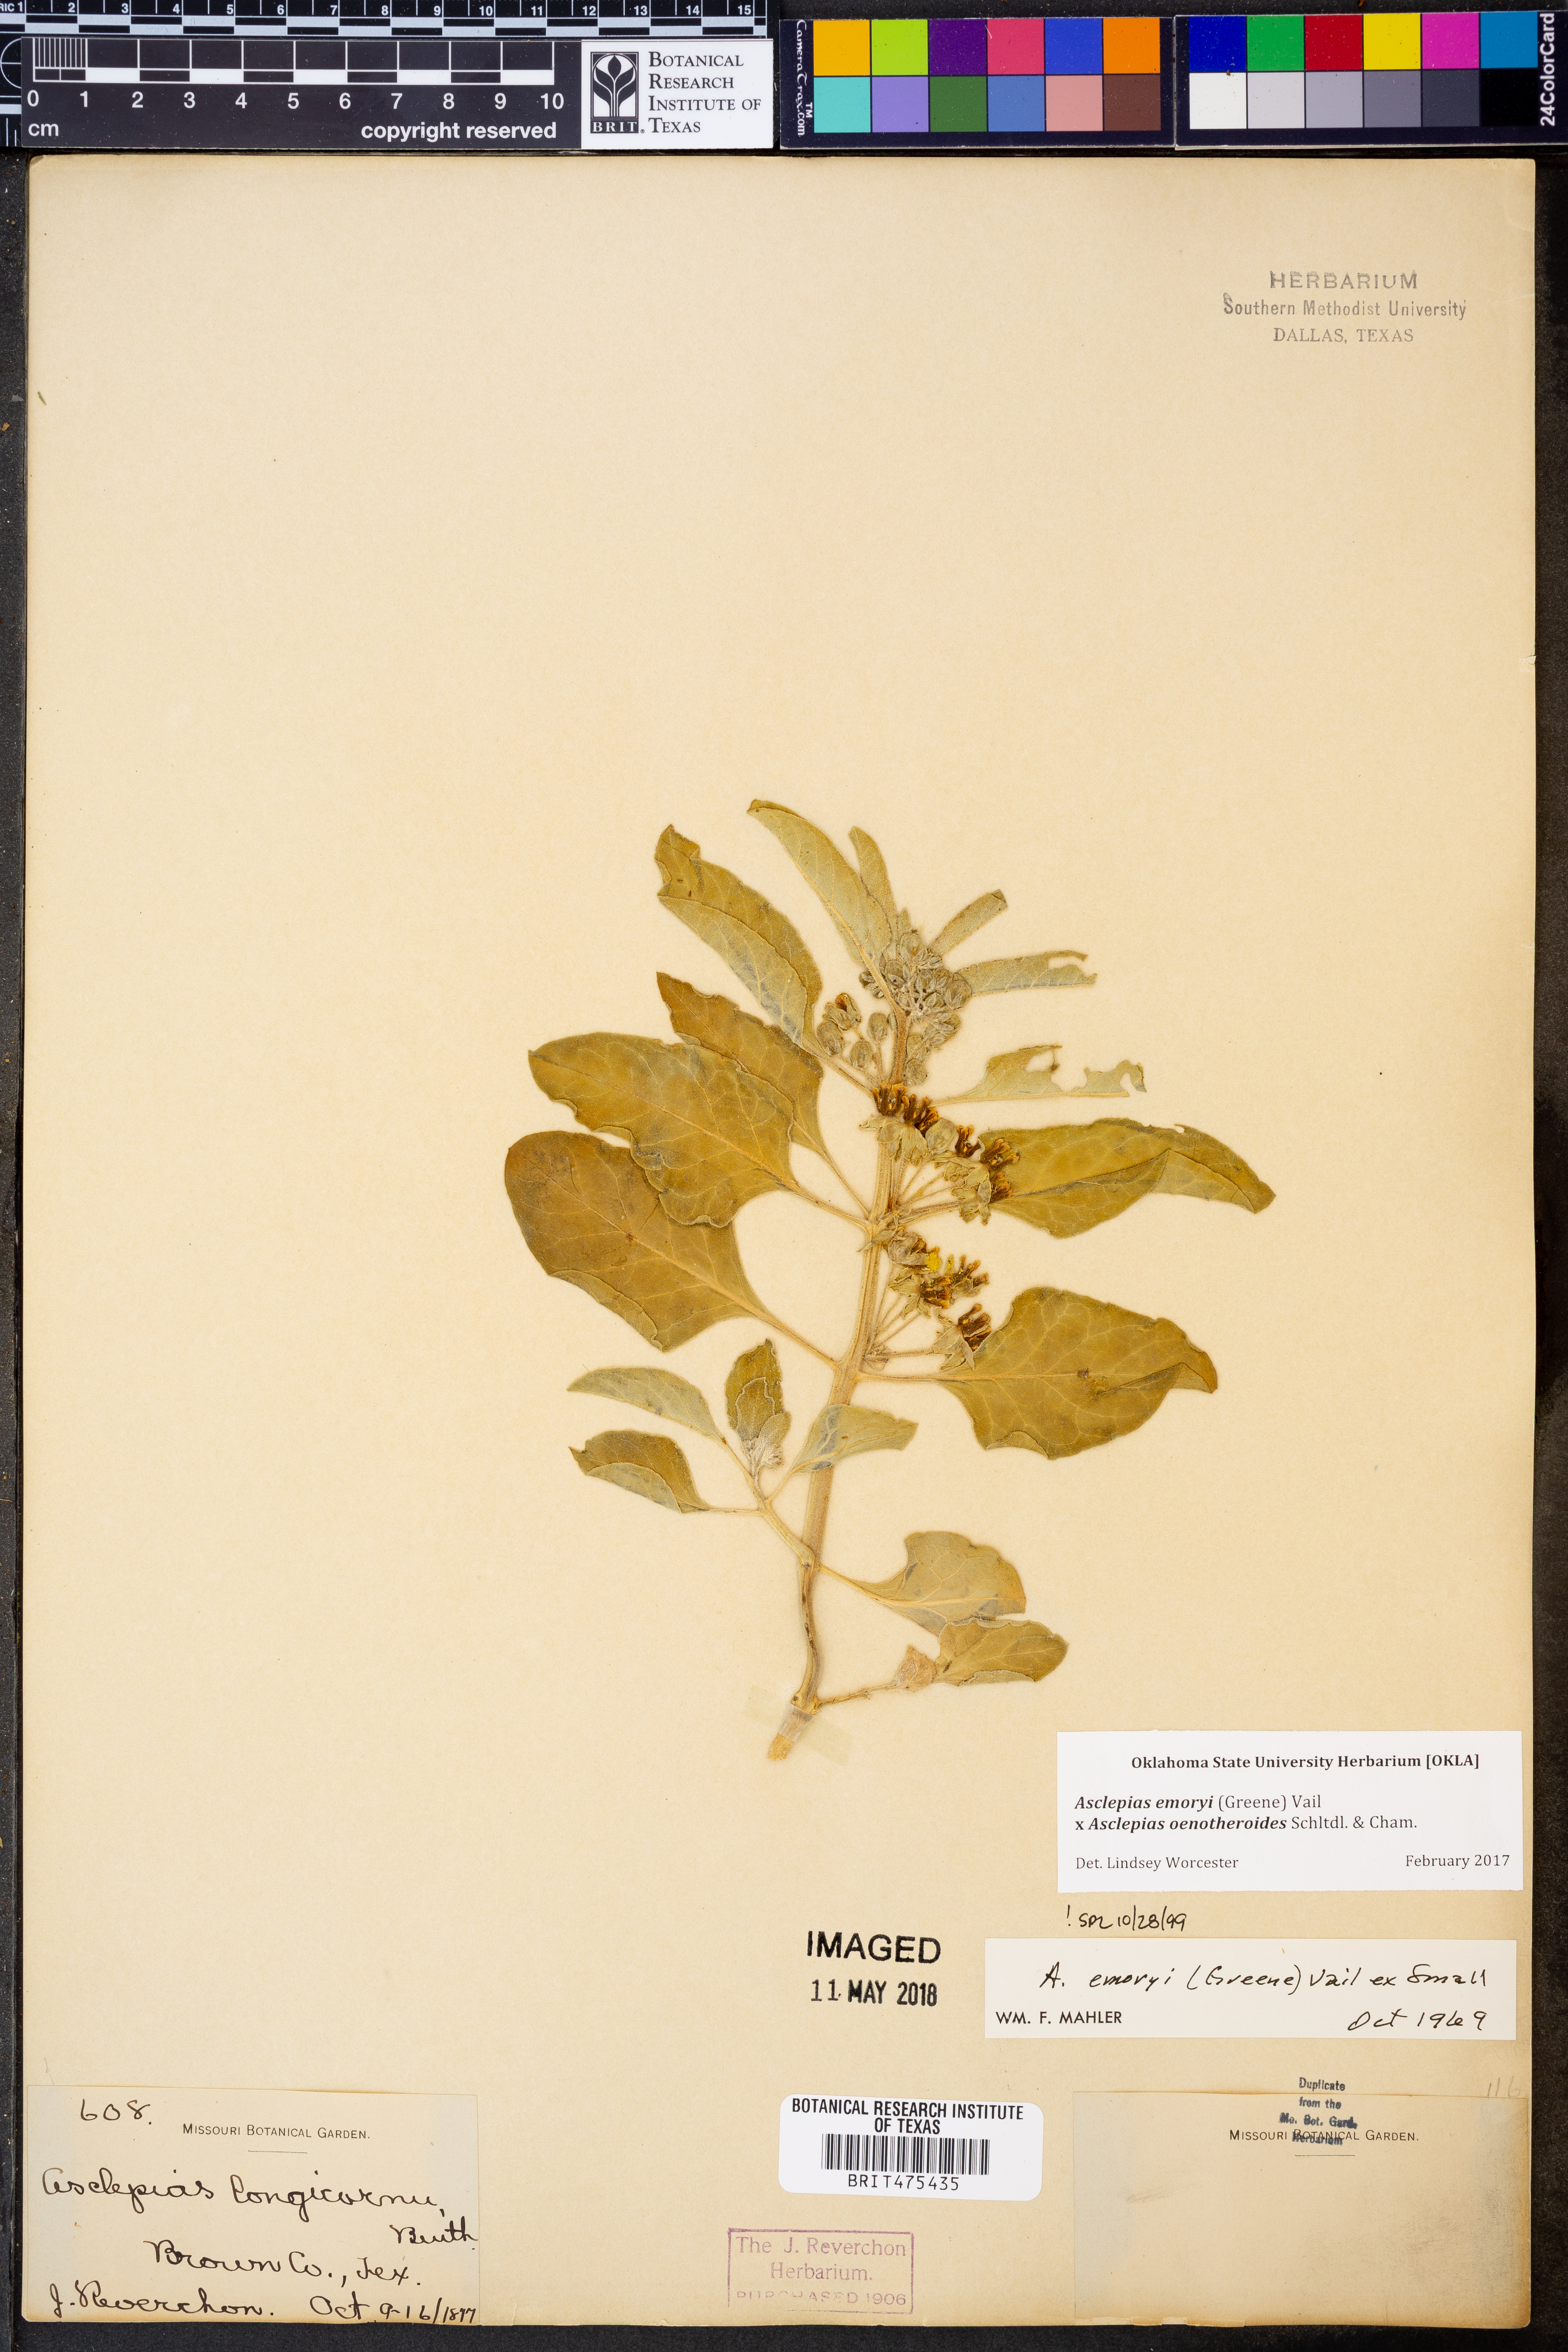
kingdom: Plantae
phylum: Tracheophyta
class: Magnoliopsida
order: Gentianales
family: Apocynaceae
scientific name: Apocynaceae
